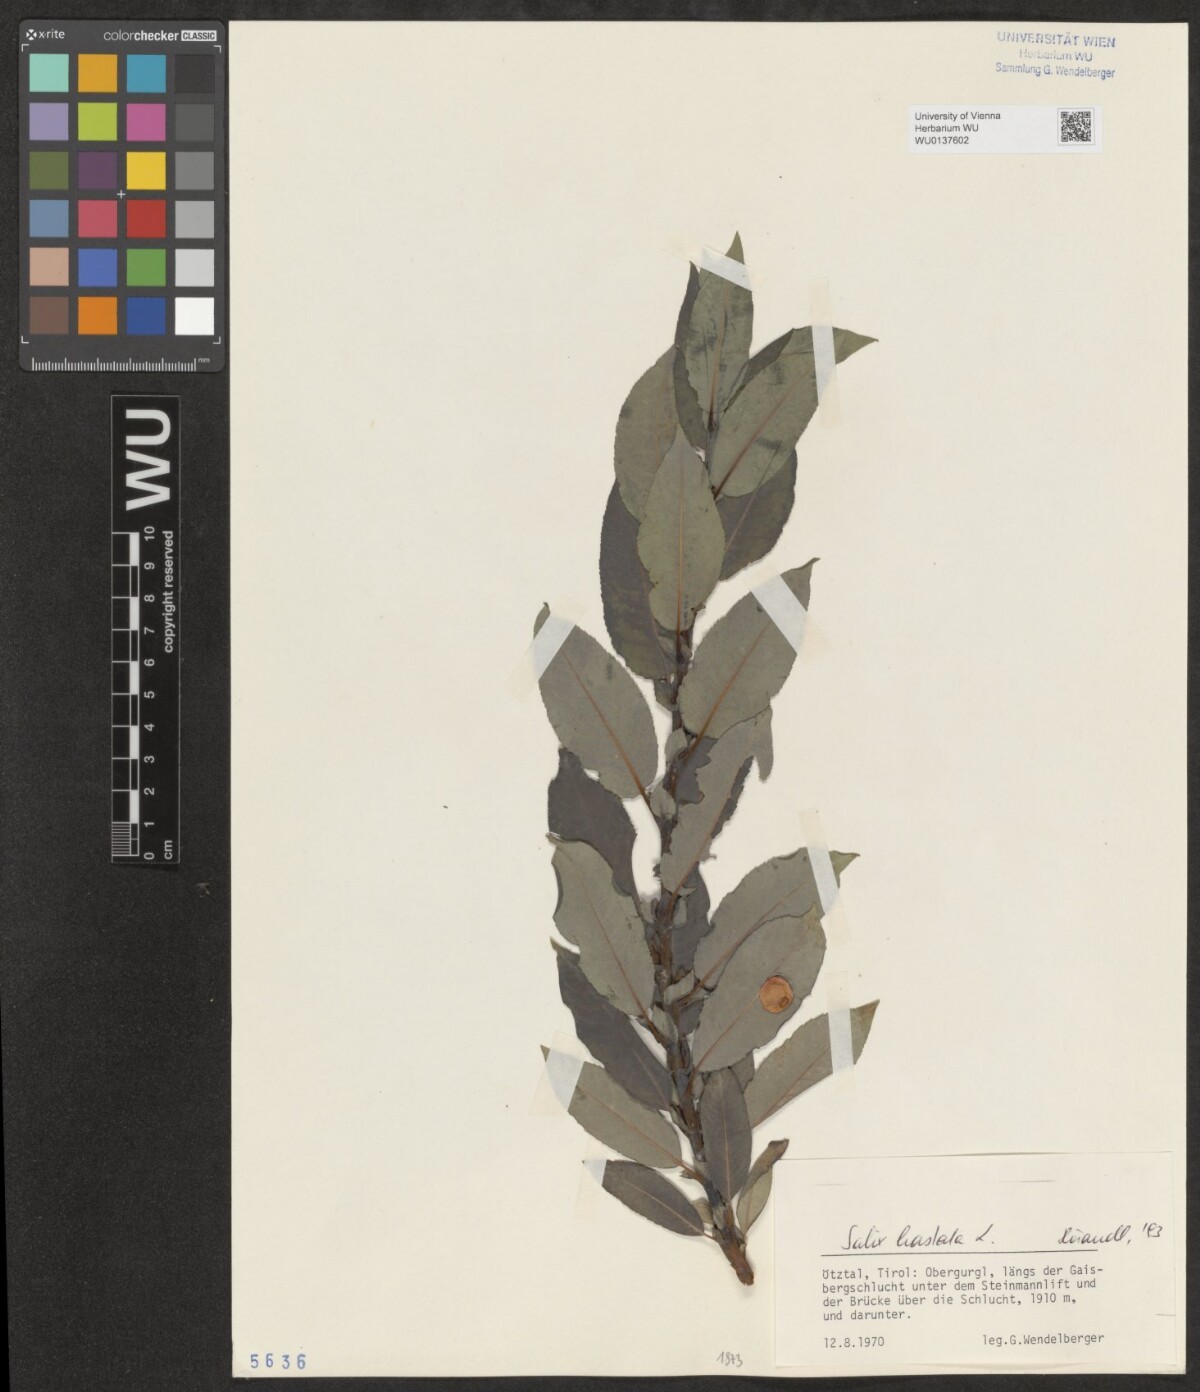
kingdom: Plantae
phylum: Tracheophyta
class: Magnoliopsida
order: Malpighiales
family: Salicaceae
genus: Salix
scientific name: Salix hastata
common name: Halberd willow
